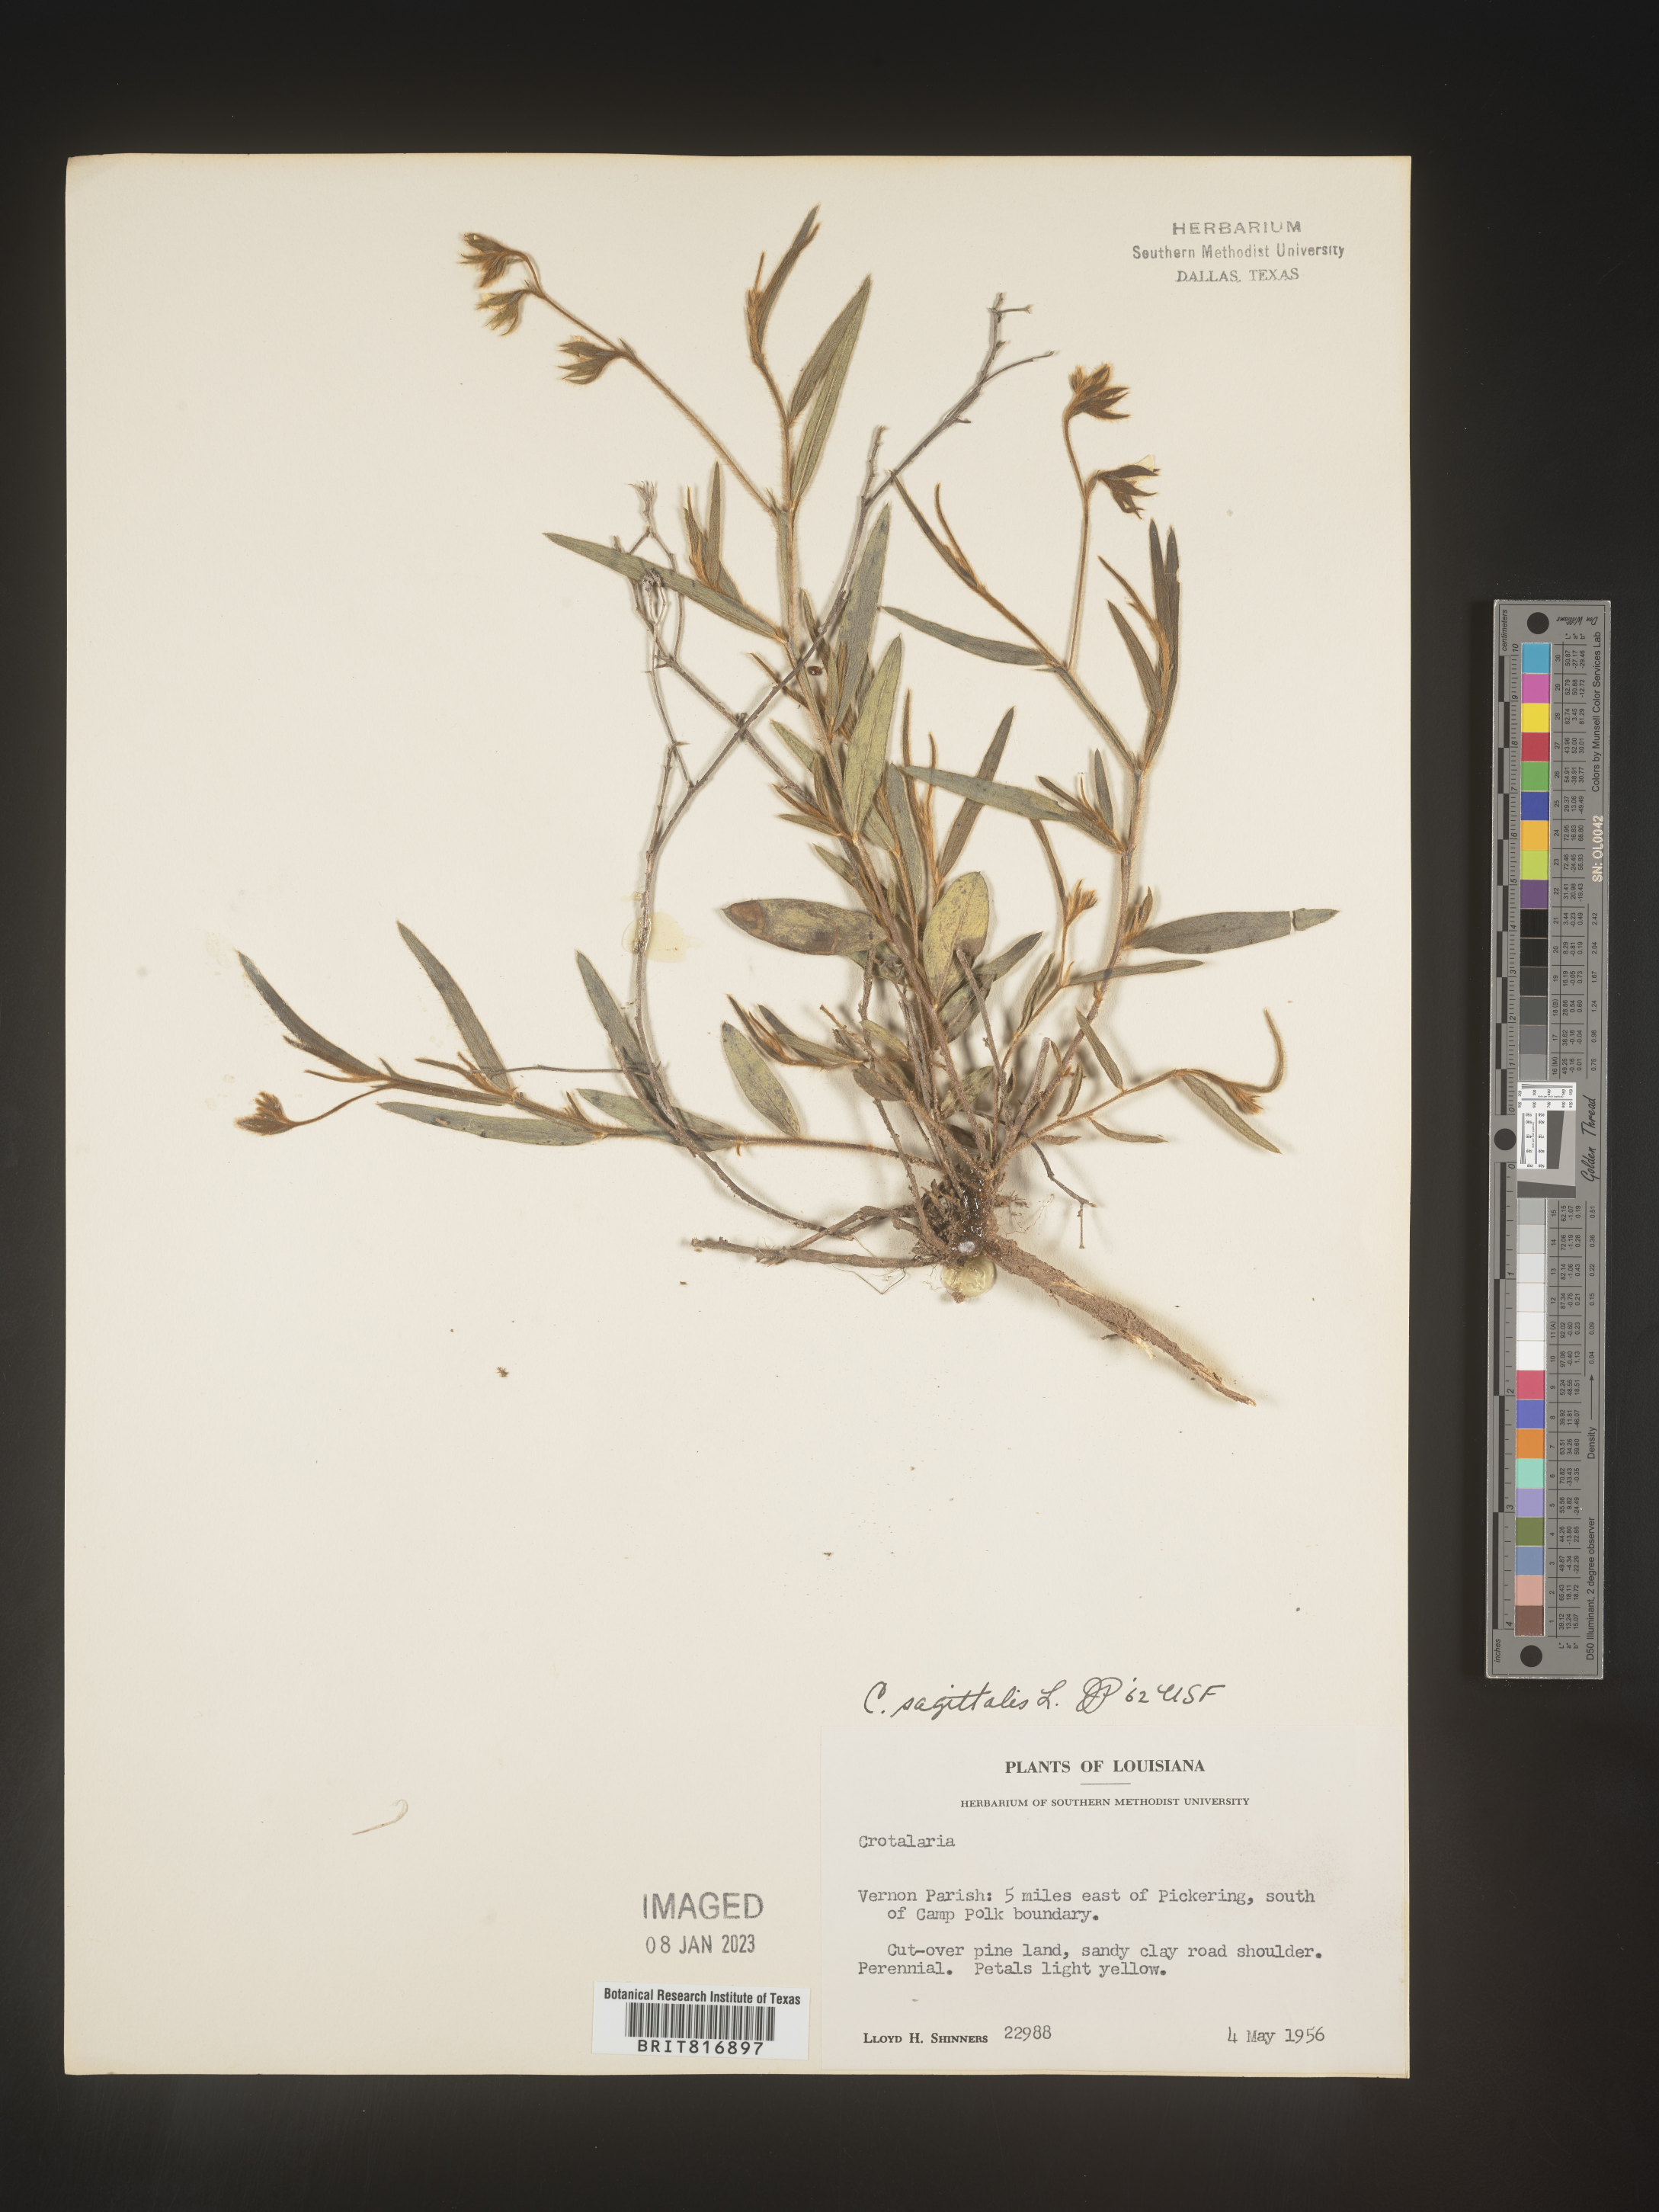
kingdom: Plantae
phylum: Tracheophyta
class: Magnoliopsida
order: Fabales
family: Fabaceae
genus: Crotalaria
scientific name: Crotalaria sagittalis
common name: Arrowhead rattlebox
